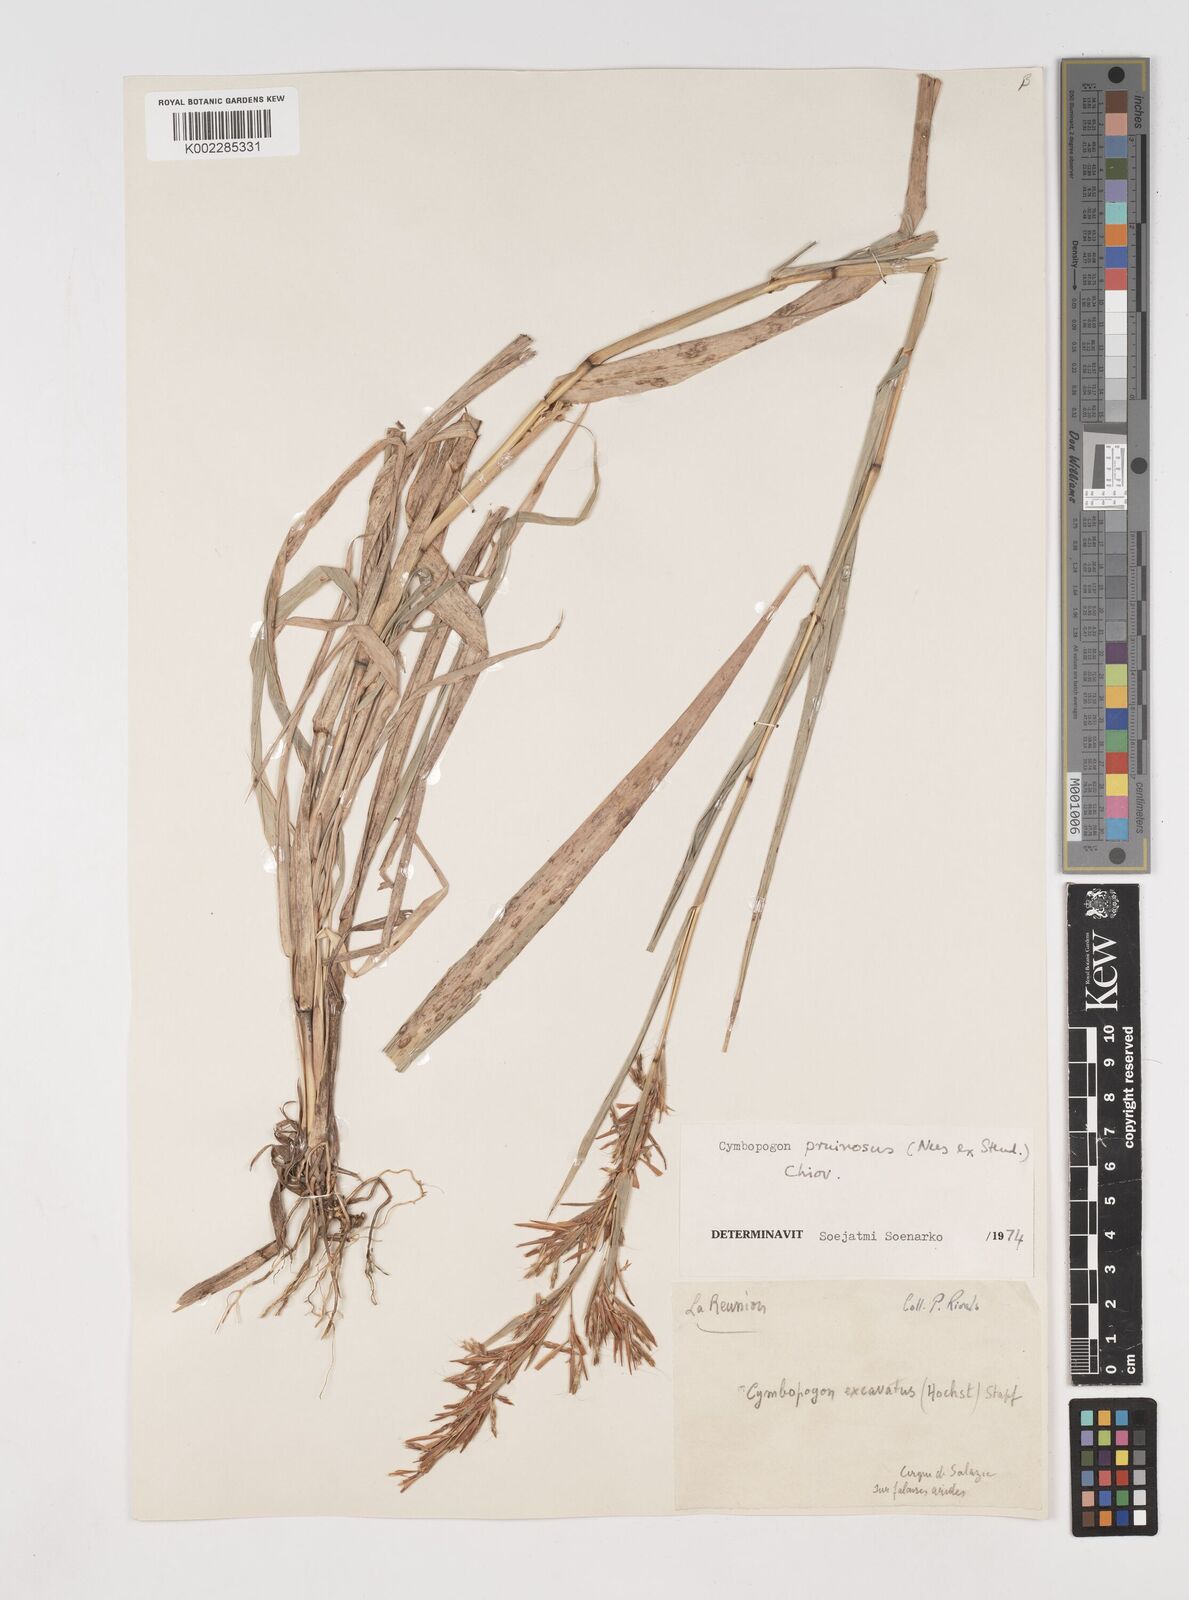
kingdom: Plantae
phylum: Tracheophyta
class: Liliopsida
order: Poales
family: Poaceae
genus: Cymbopogon
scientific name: Cymbopogon pruinosus
